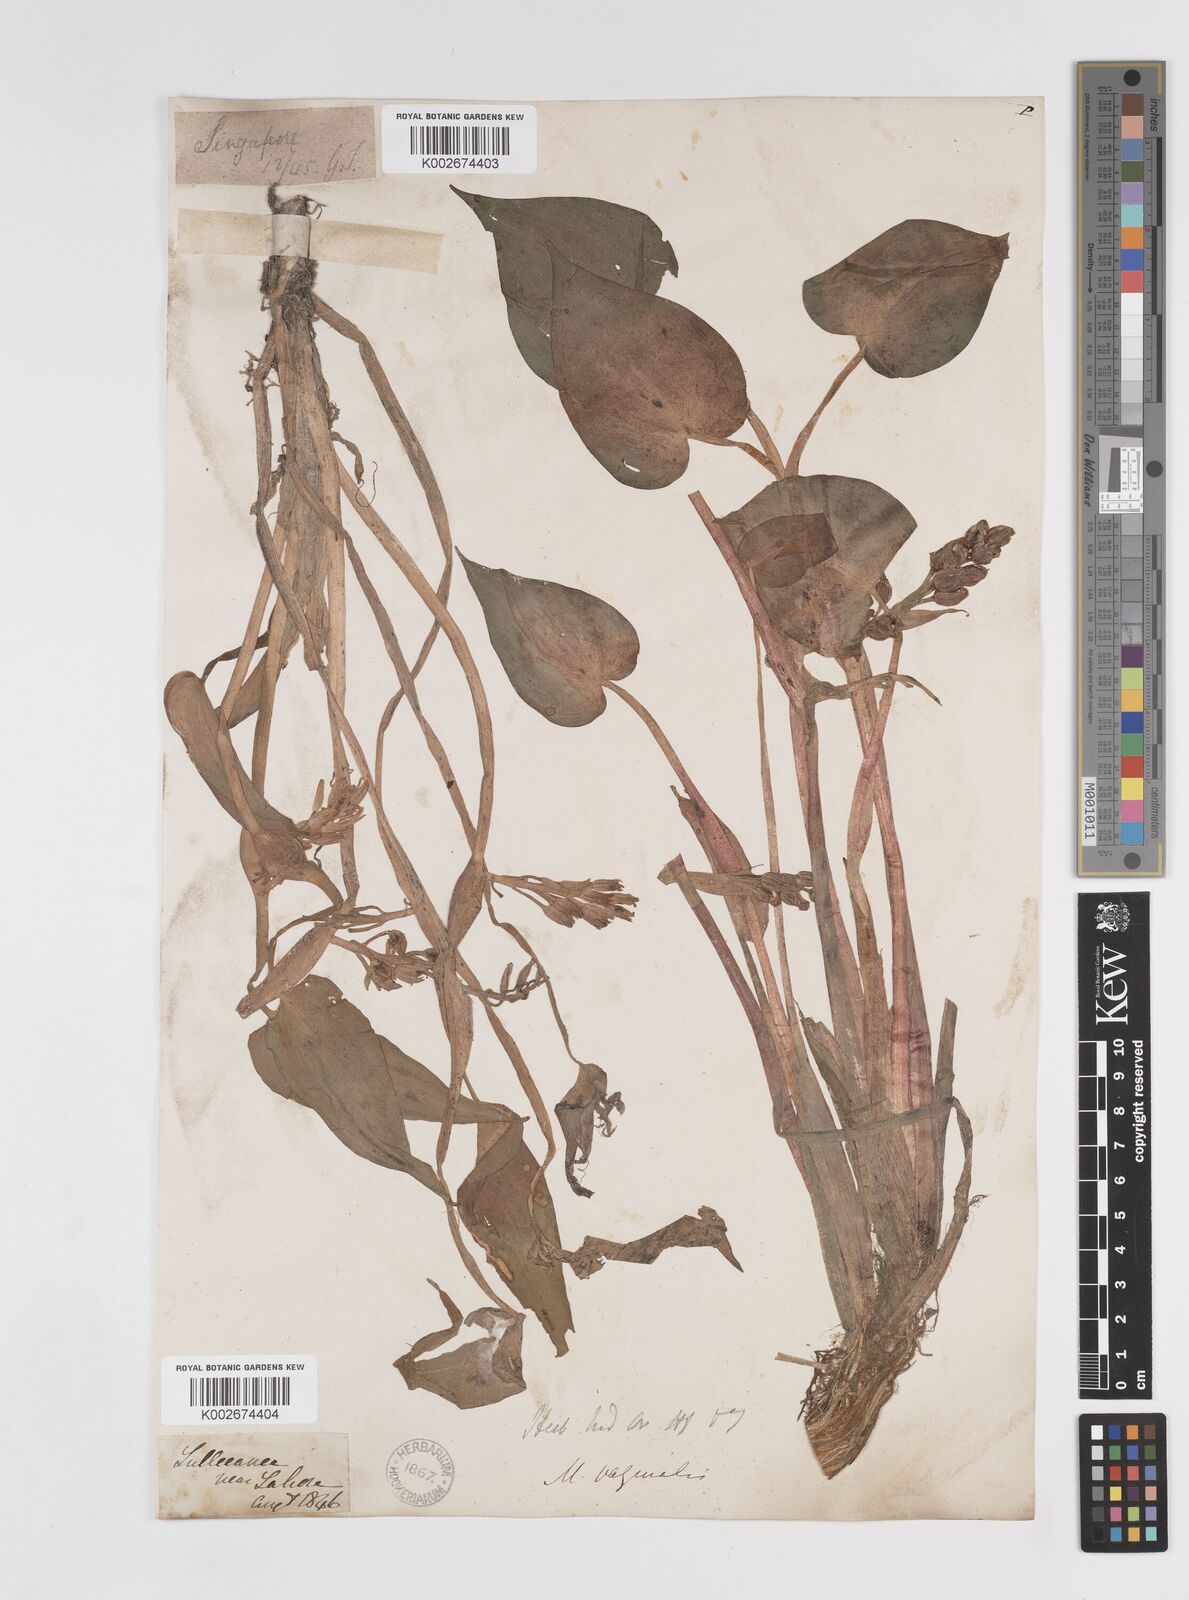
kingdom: Plantae
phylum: Tracheophyta
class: Liliopsida
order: Commelinales
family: Pontederiaceae
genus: Pontederia
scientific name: Pontederia vaginalis
